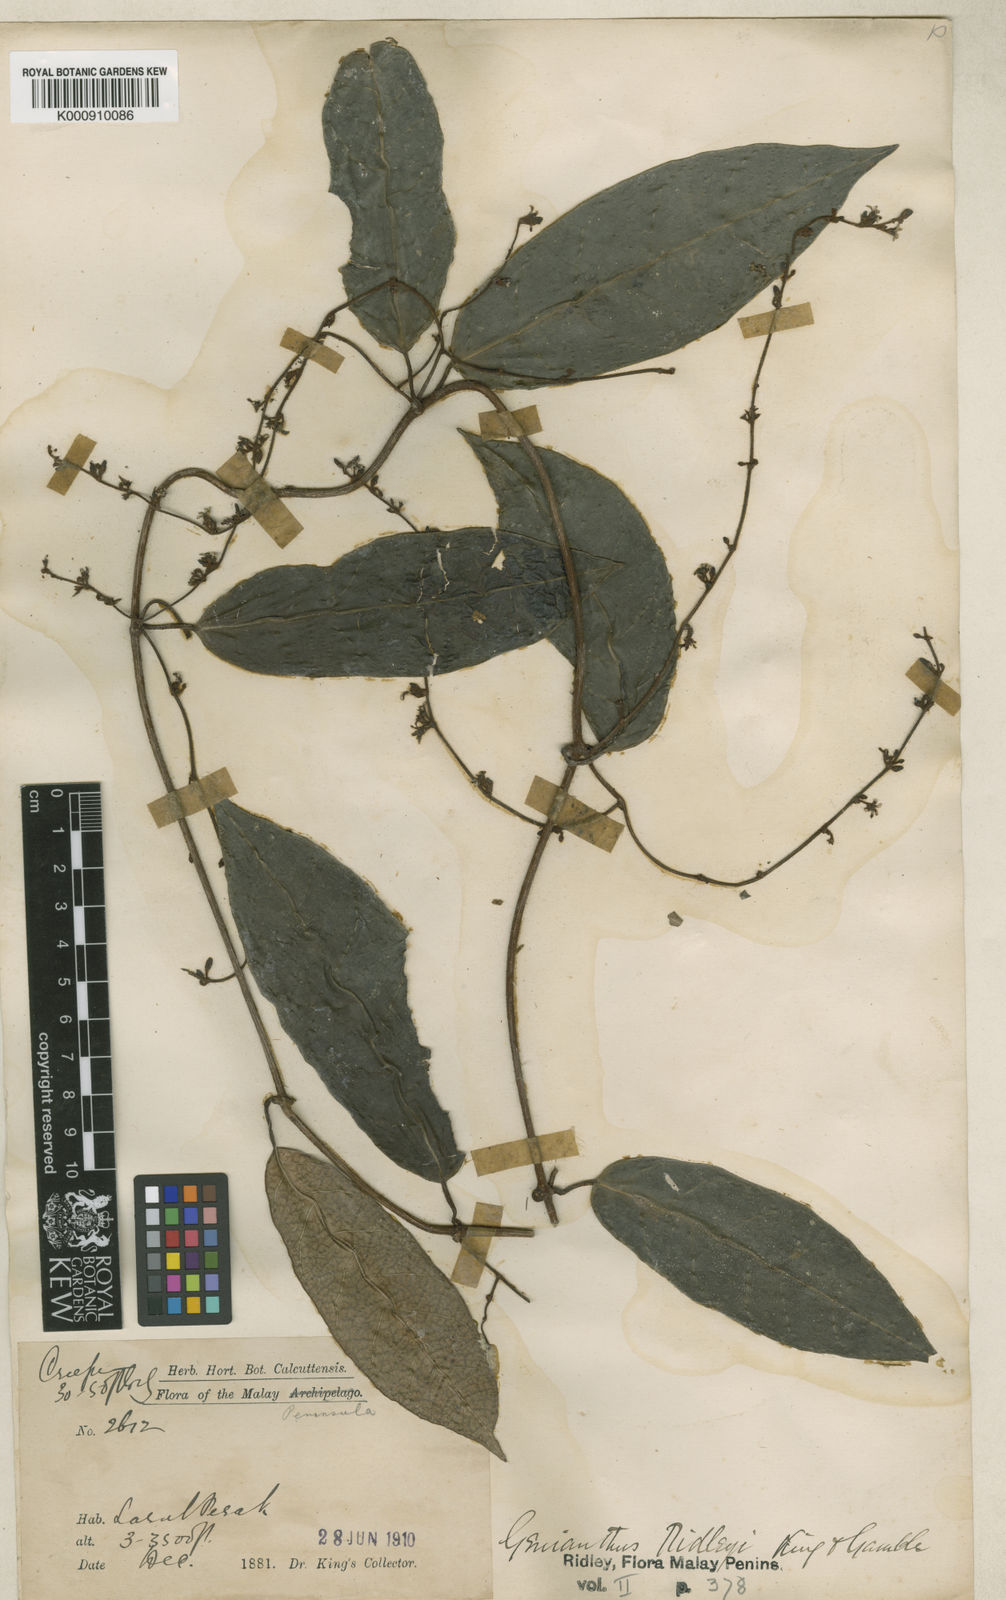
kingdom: Plantae
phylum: Tracheophyta
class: Magnoliopsida
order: Gentianales
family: Apocynaceae
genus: Secamone
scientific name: Secamone
